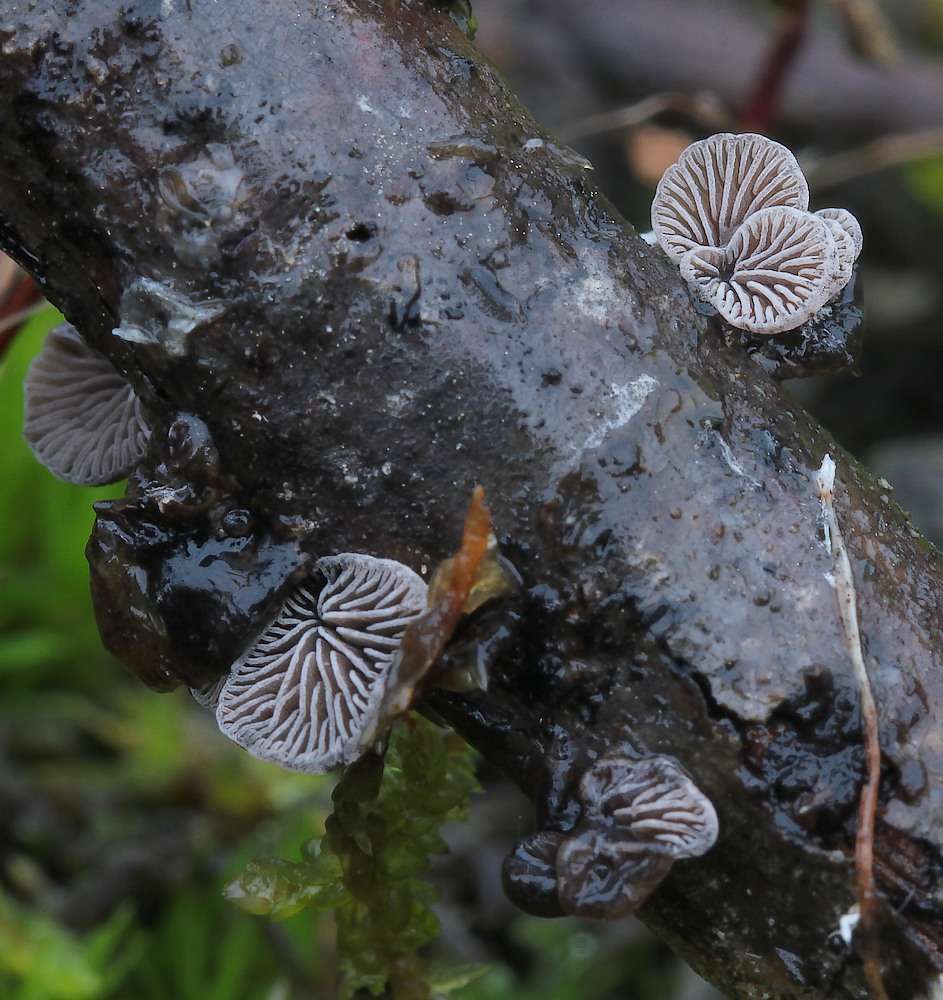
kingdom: Fungi
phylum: Basidiomycota
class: Agaricomycetes
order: Agaricales
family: Pleurotaceae
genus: Resupinatus
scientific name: Resupinatus trichotis
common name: mørkfiltet barkhat
